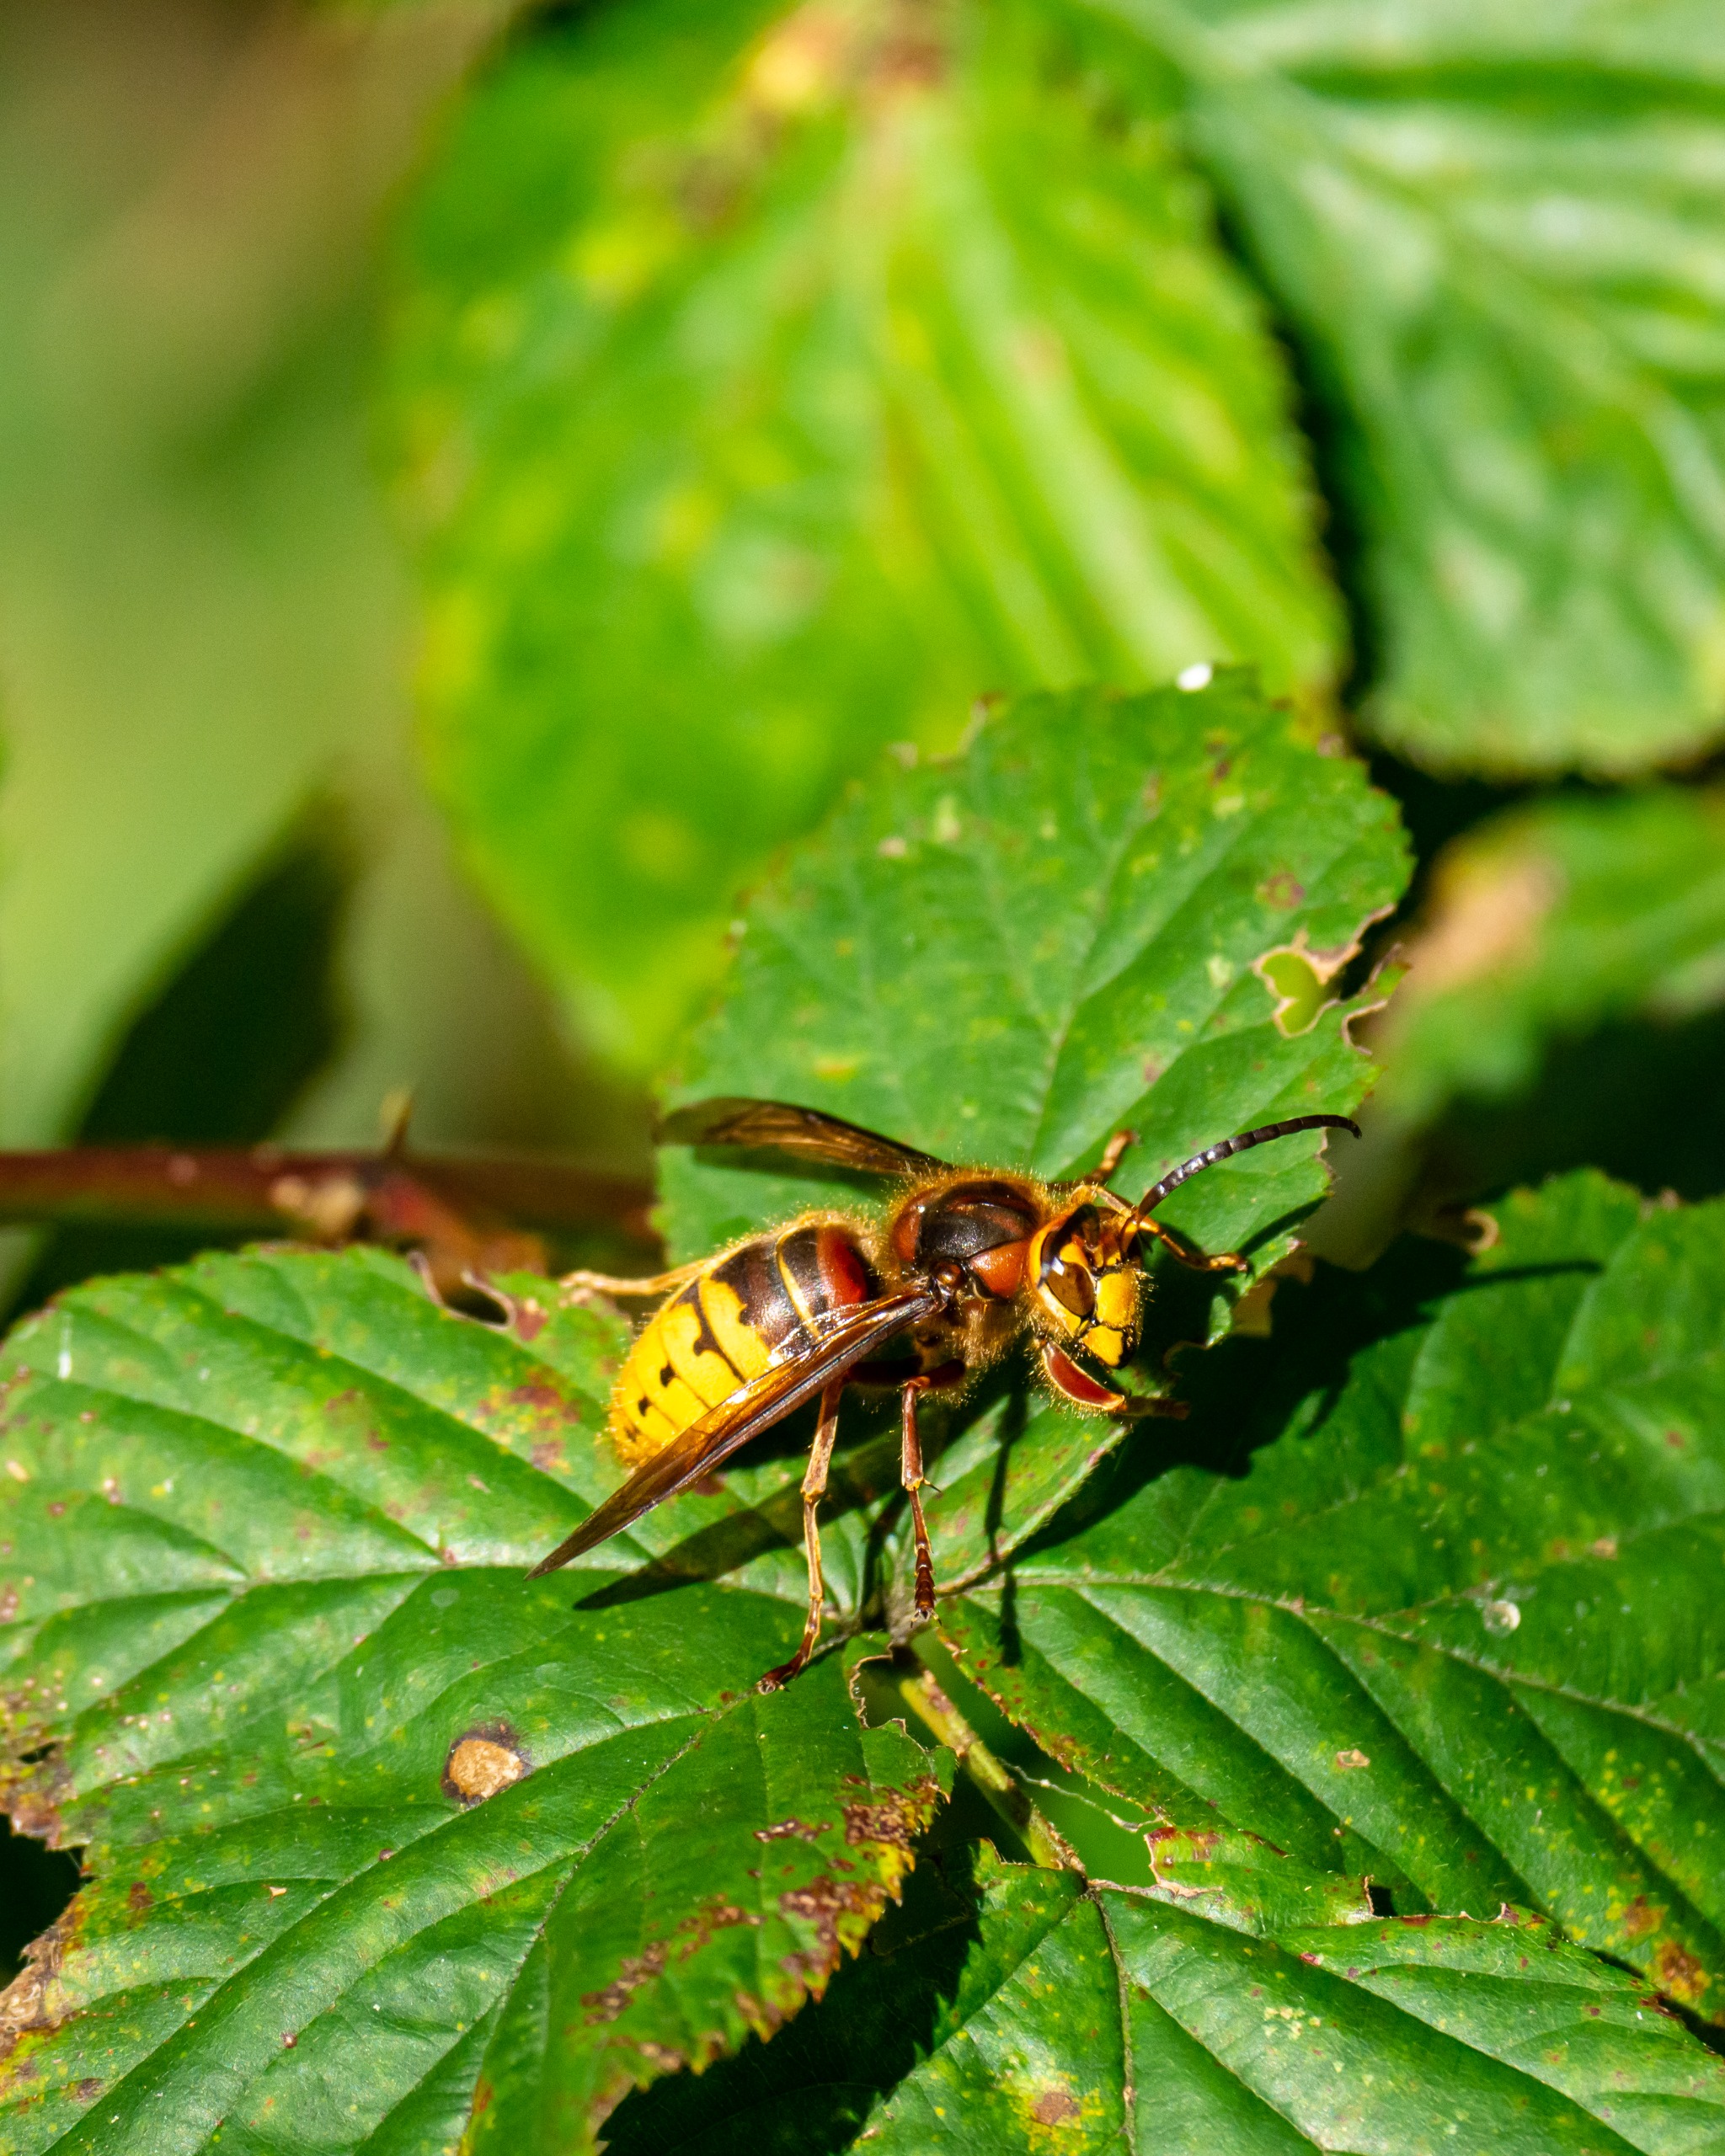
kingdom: Animalia
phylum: Arthropoda
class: Insecta
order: Hymenoptera
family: Vespidae
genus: Vespa
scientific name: Vespa crabro
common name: Stor gedehams
